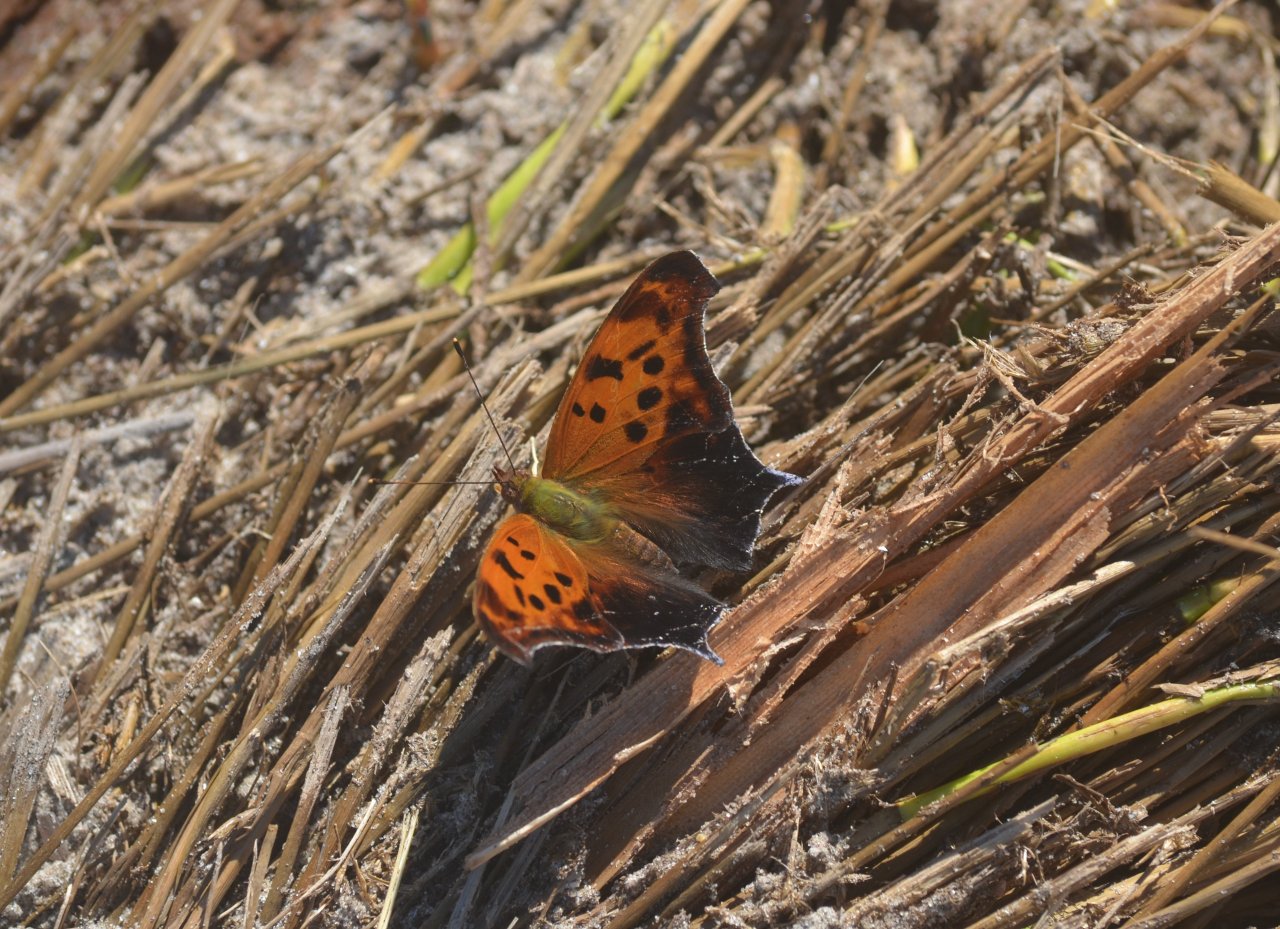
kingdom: Animalia
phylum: Arthropoda
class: Insecta
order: Lepidoptera
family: Nymphalidae
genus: Polygonia
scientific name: Polygonia interrogationis
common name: Question Mark
